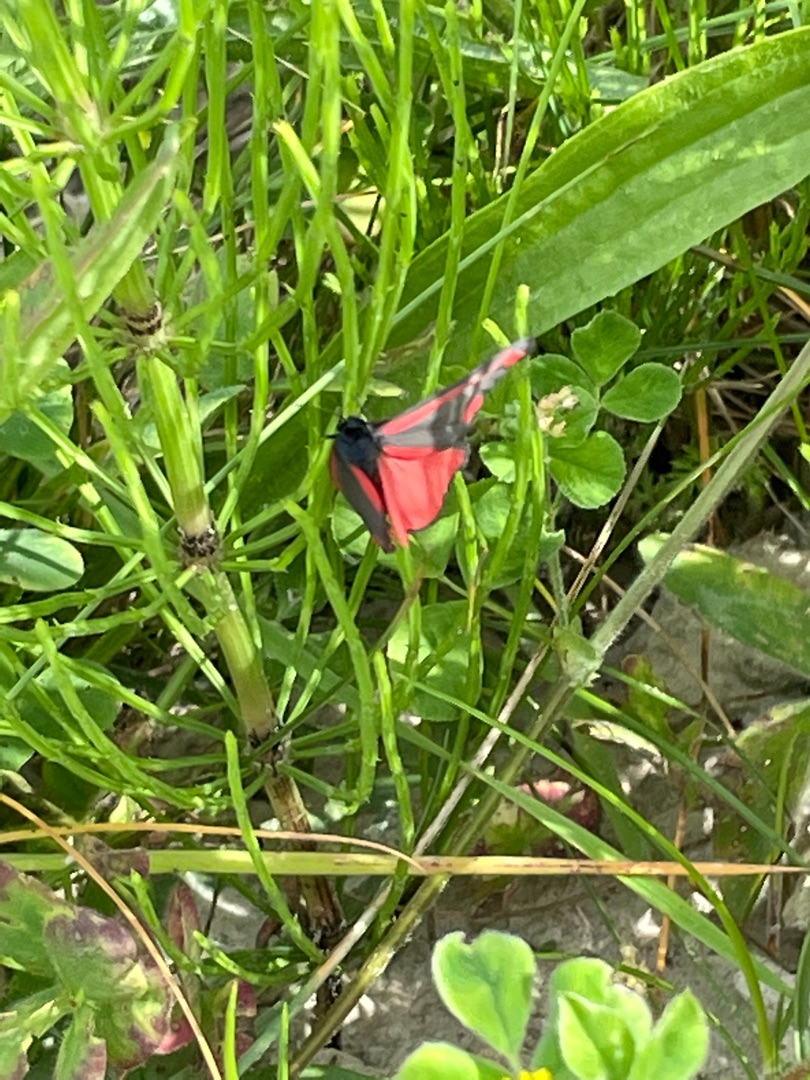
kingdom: Animalia
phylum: Arthropoda
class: Insecta
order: Lepidoptera
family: Erebidae
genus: Tyria
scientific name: Tyria jacobaeae
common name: Blodplet
